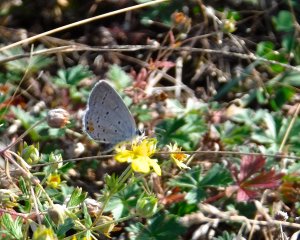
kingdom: Animalia
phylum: Arthropoda
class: Insecta
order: Lepidoptera
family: Lycaenidae
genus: Elkalyce
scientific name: Elkalyce comyntas
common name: Eastern Tailed-Blue
